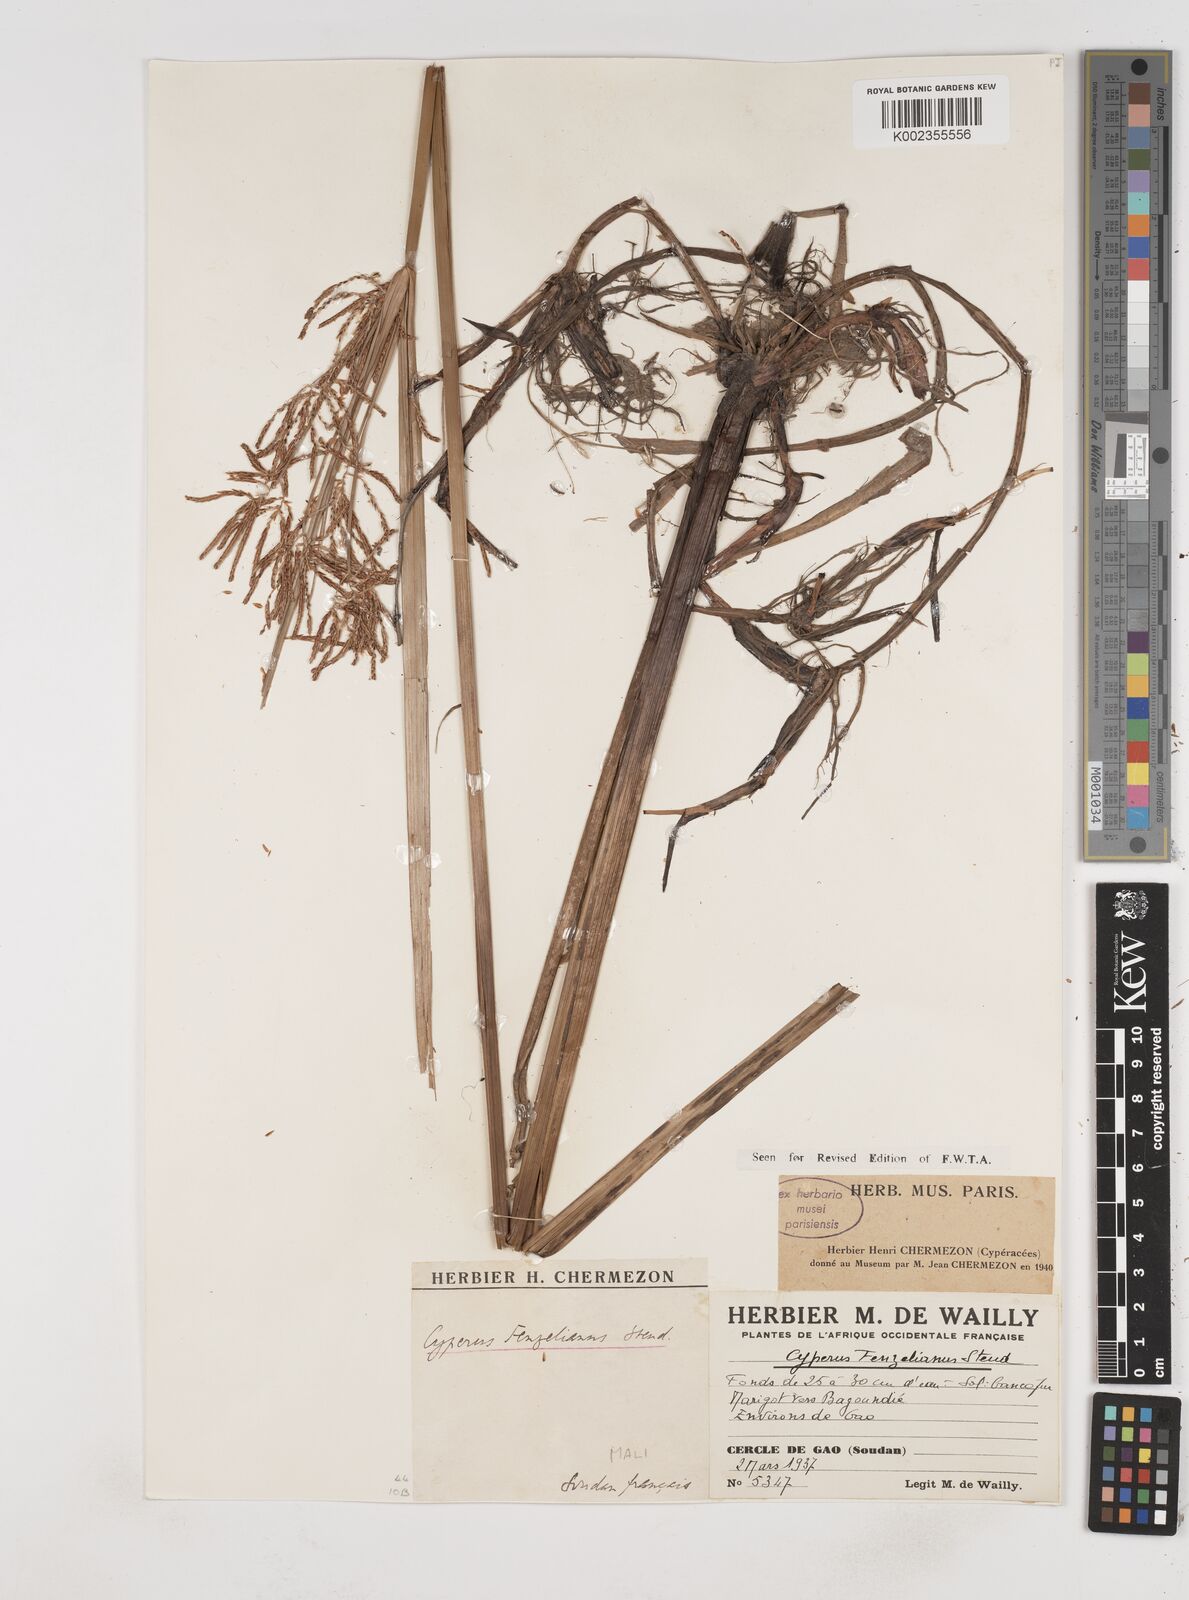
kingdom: Plantae
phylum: Tracheophyta
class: Liliopsida
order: Poales
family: Cyperaceae
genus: Cyperus
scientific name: Cyperus longus
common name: Galingale
